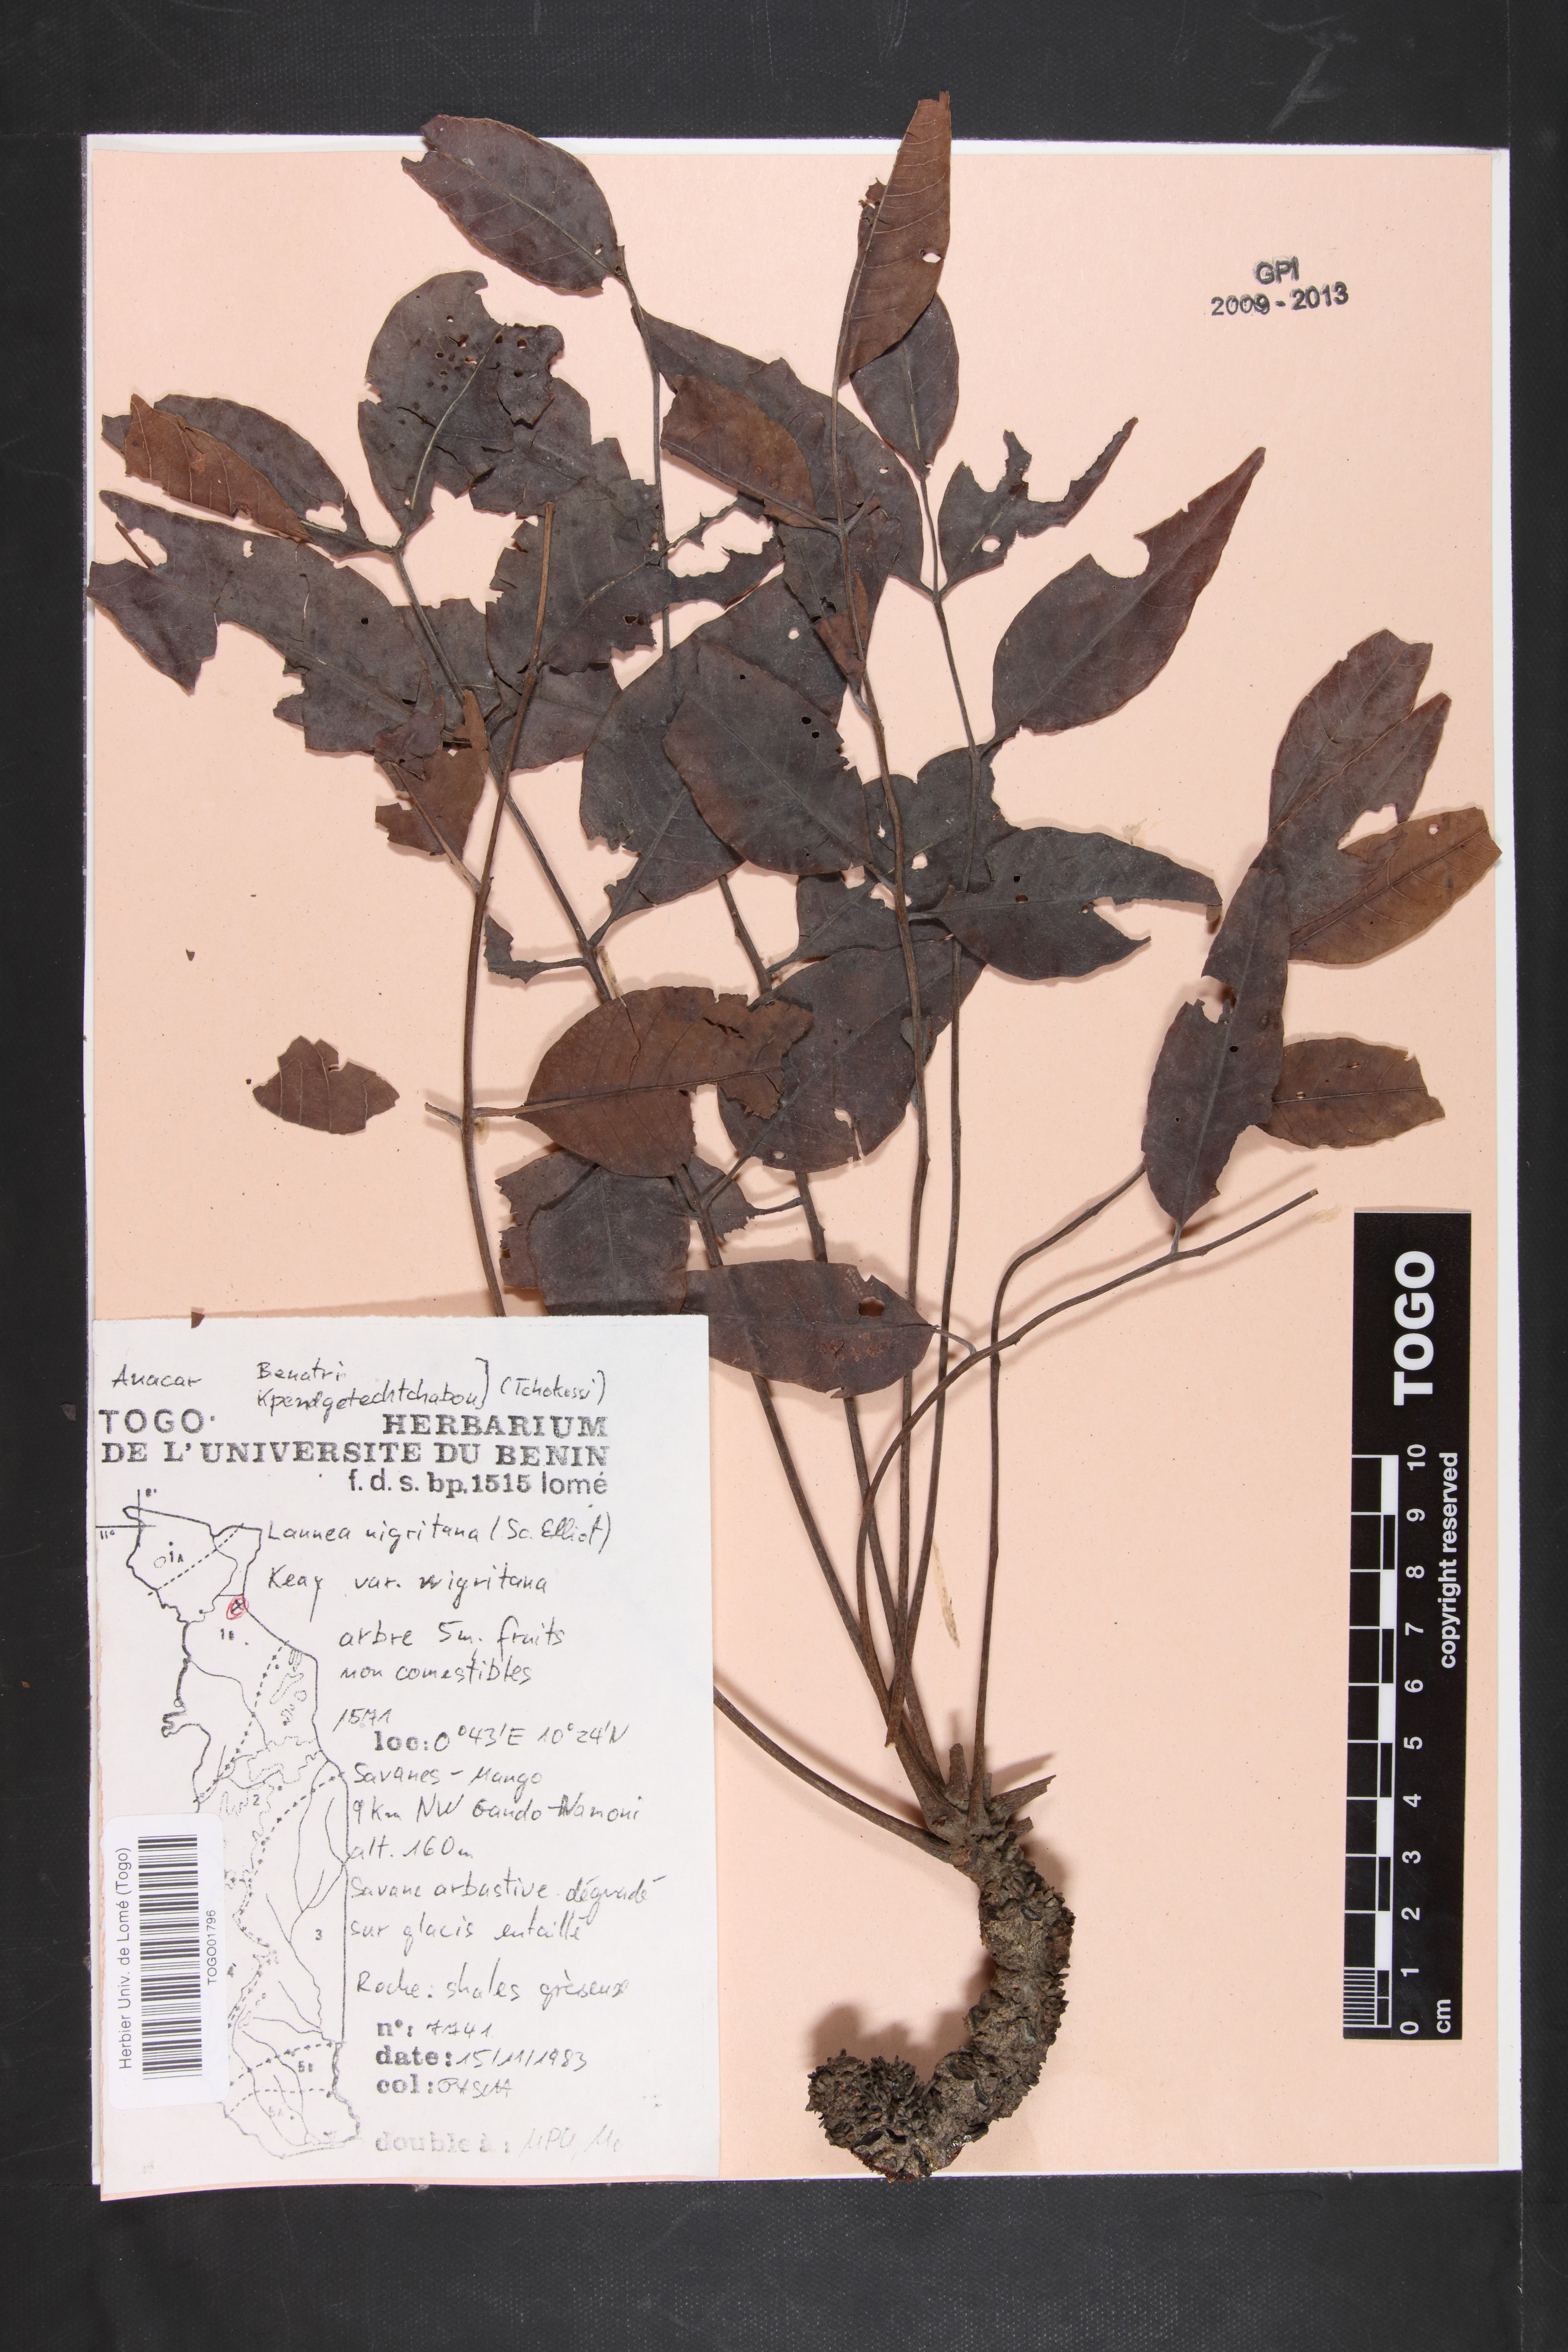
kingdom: Plantae
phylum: Tracheophyta
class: Magnoliopsida
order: Sapindales
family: Anacardiaceae
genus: Lannea
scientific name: Lannea nigritana
